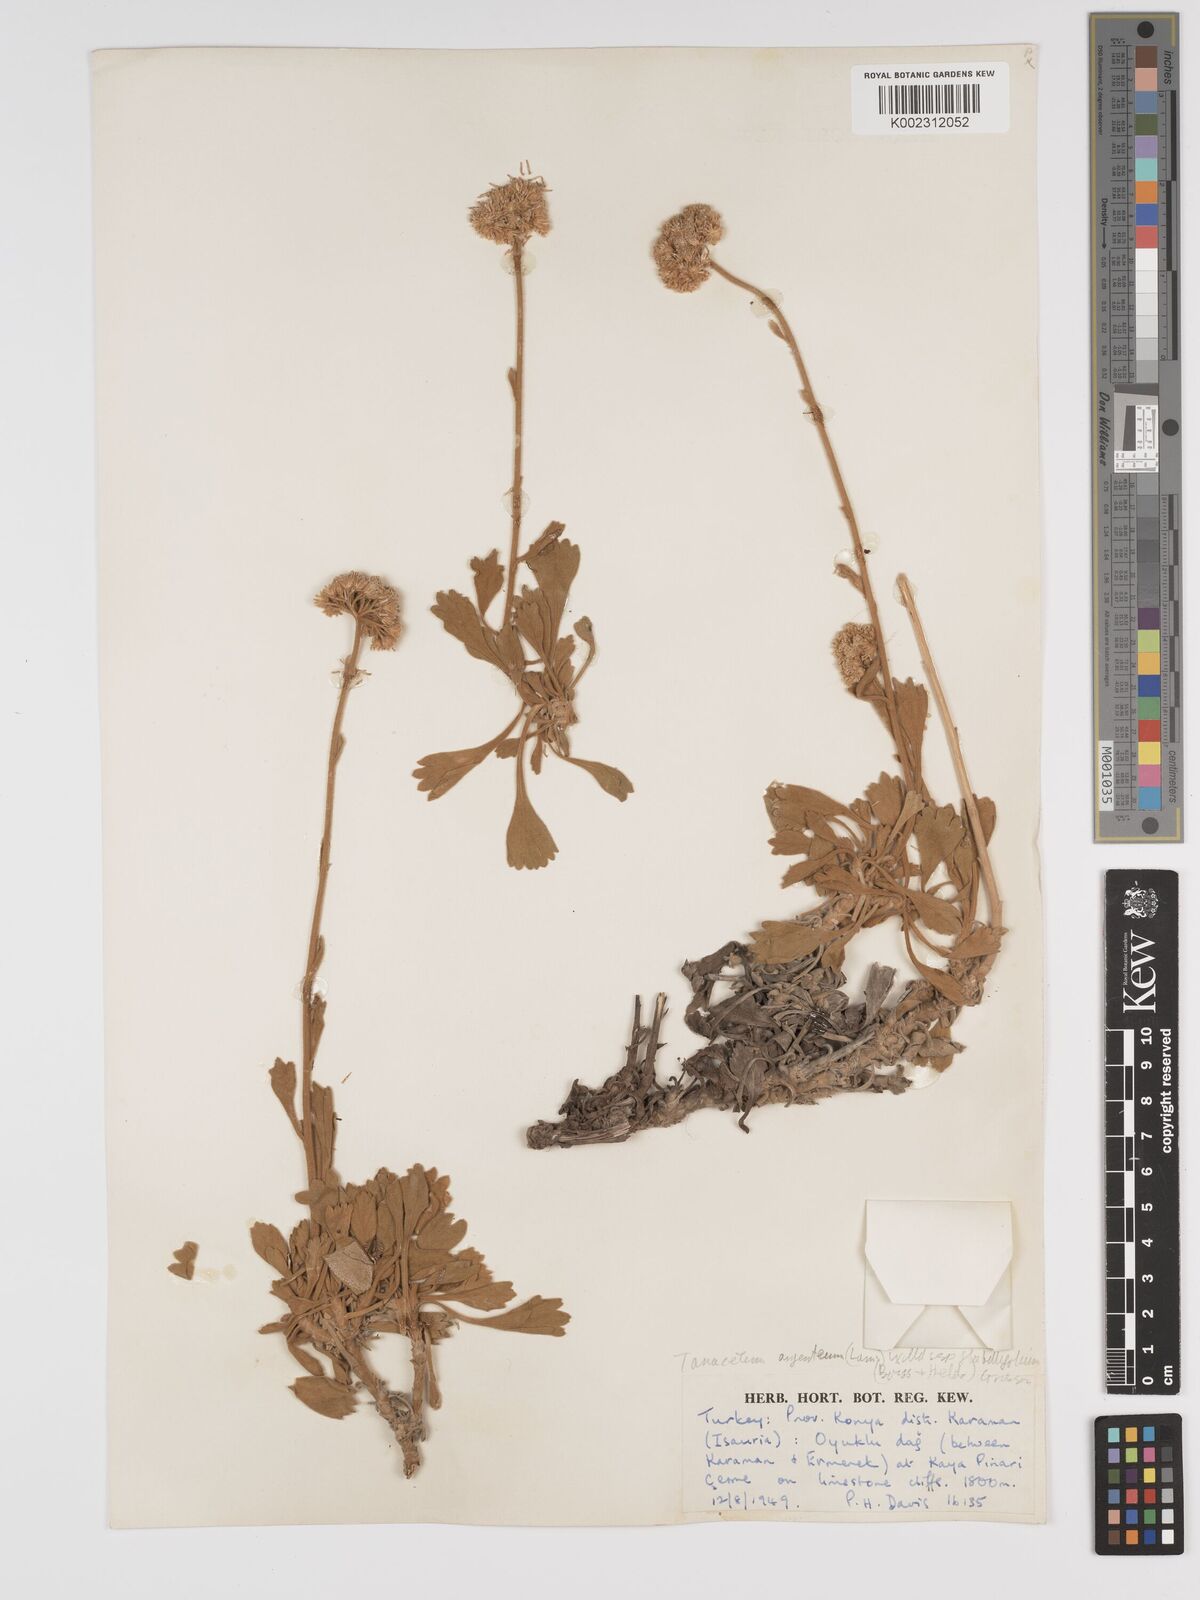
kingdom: Plantae
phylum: Tracheophyta
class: Magnoliopsida
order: Asterales
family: Asteraceae
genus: Tanacetum
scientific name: Tanacetum argenteum
